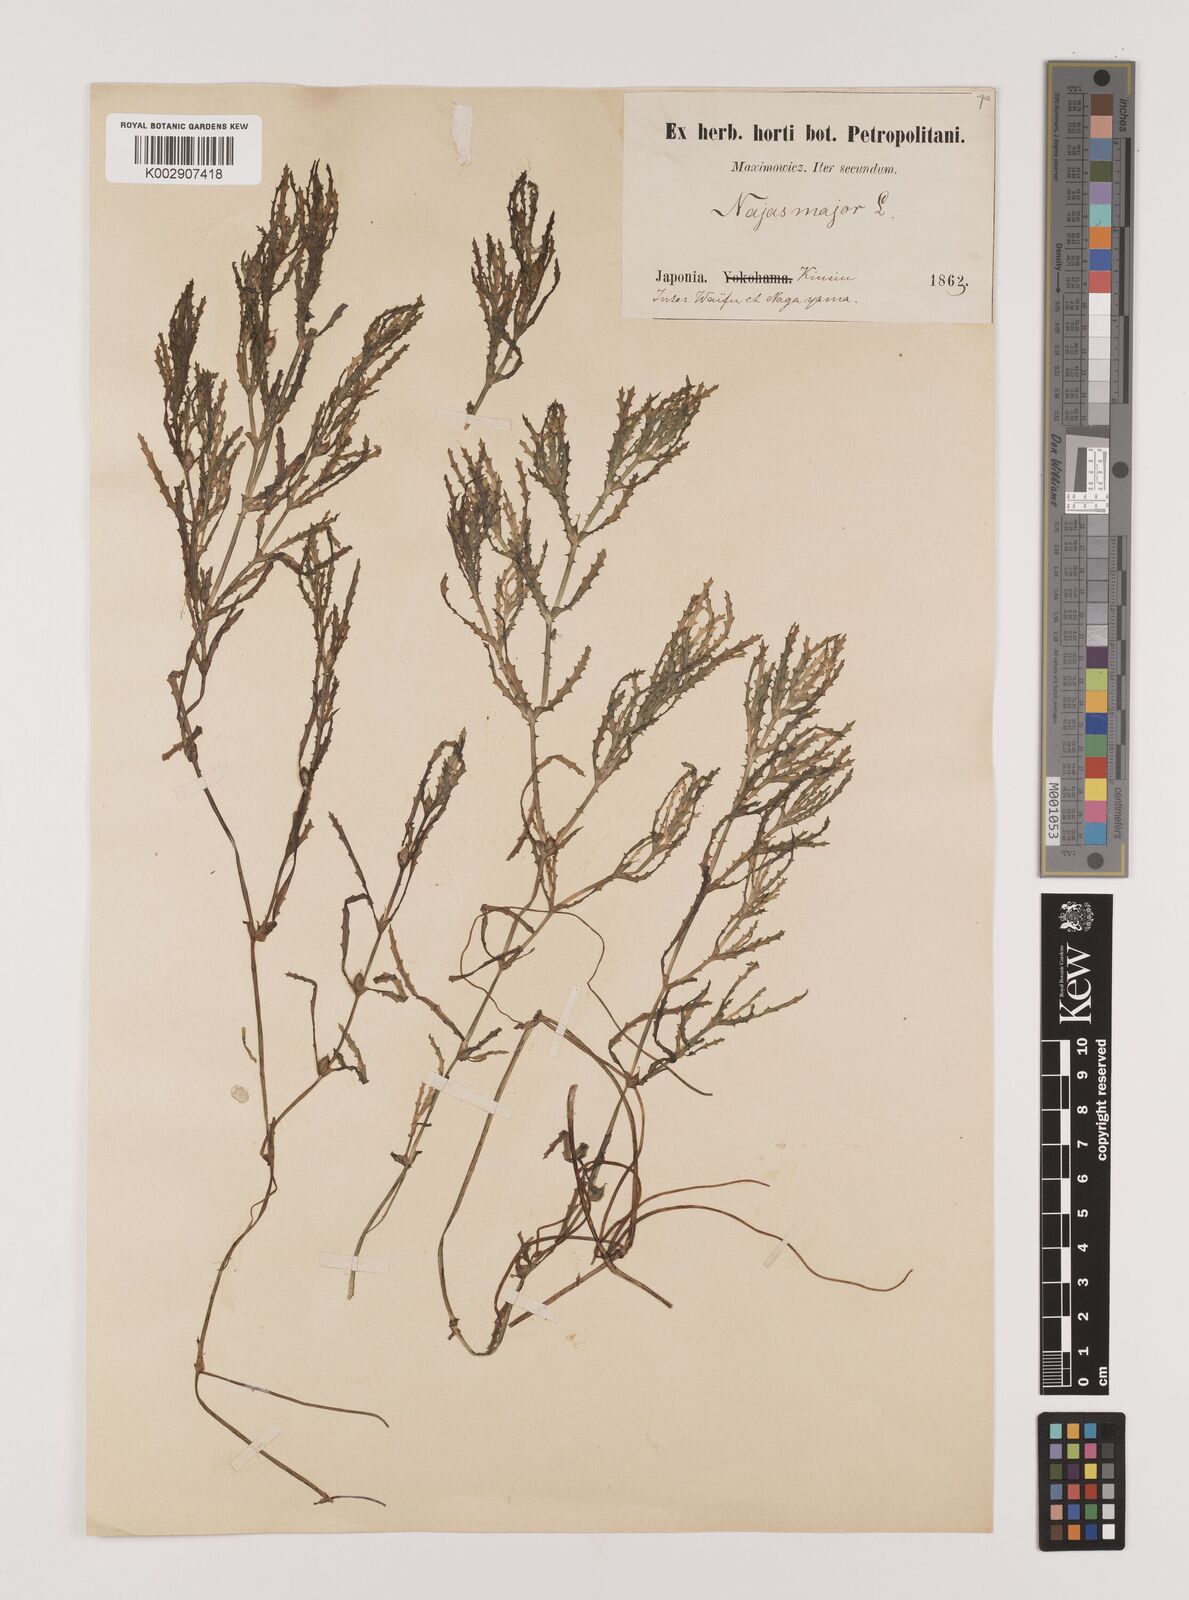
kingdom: Plantae
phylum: Tracheophyta
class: Liliopsida
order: Alismatales
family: Hydrocharitaceae
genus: Najas
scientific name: Najas marina
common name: Holly-leaved naiad
